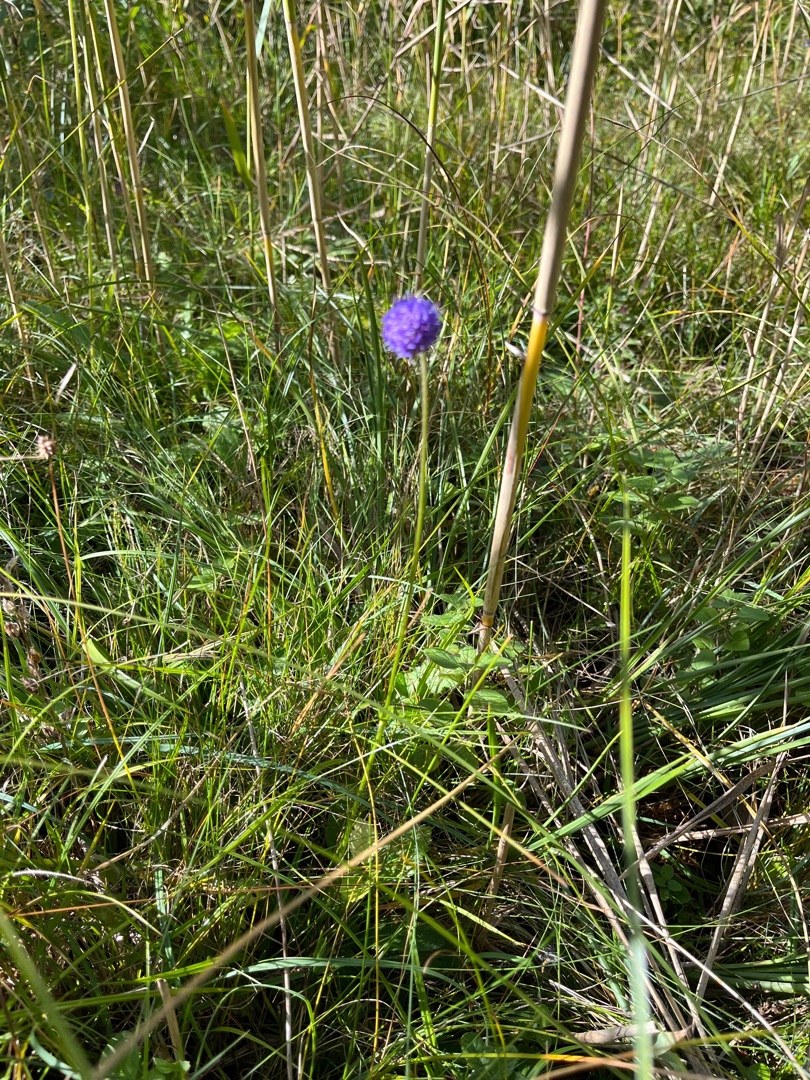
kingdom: Plantae
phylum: Tracheophyta
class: Magnoliopsida
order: Dipsacales
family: Caprifoliaceae
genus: Succisa
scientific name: Succisa pratensis
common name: Djævelsbid
